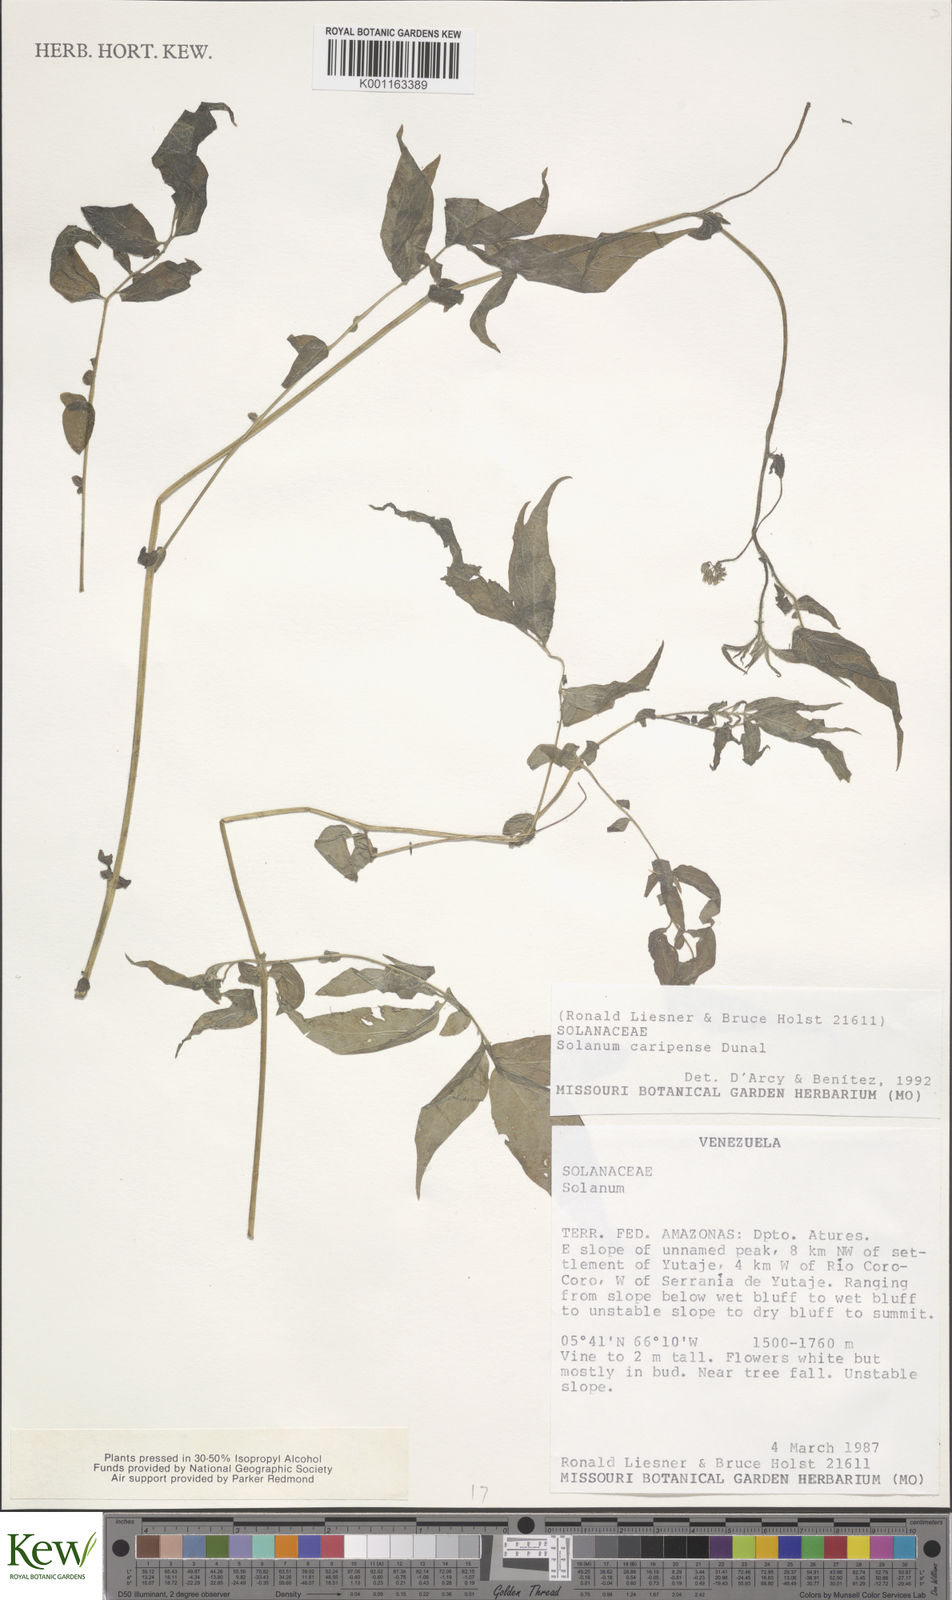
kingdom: Plantae
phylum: Tracheophyta
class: Magnoliopsida
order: Solanales
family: Solanaceae
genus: Solanum
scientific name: Solanum caripense
